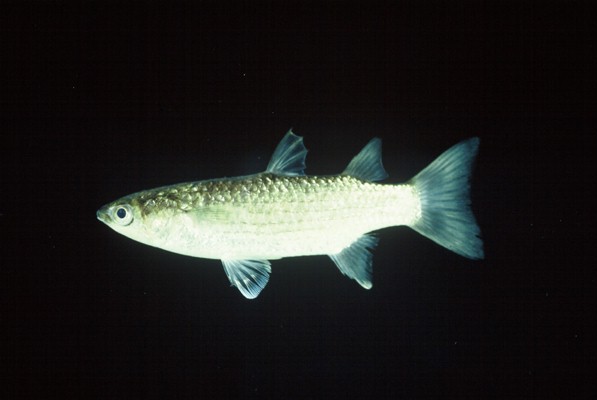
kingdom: Animalia
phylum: Chordata
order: Mugiliformes
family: Mugilidae
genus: Planiliza
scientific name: Planiliza melinopterus
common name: Otomebora mullet
